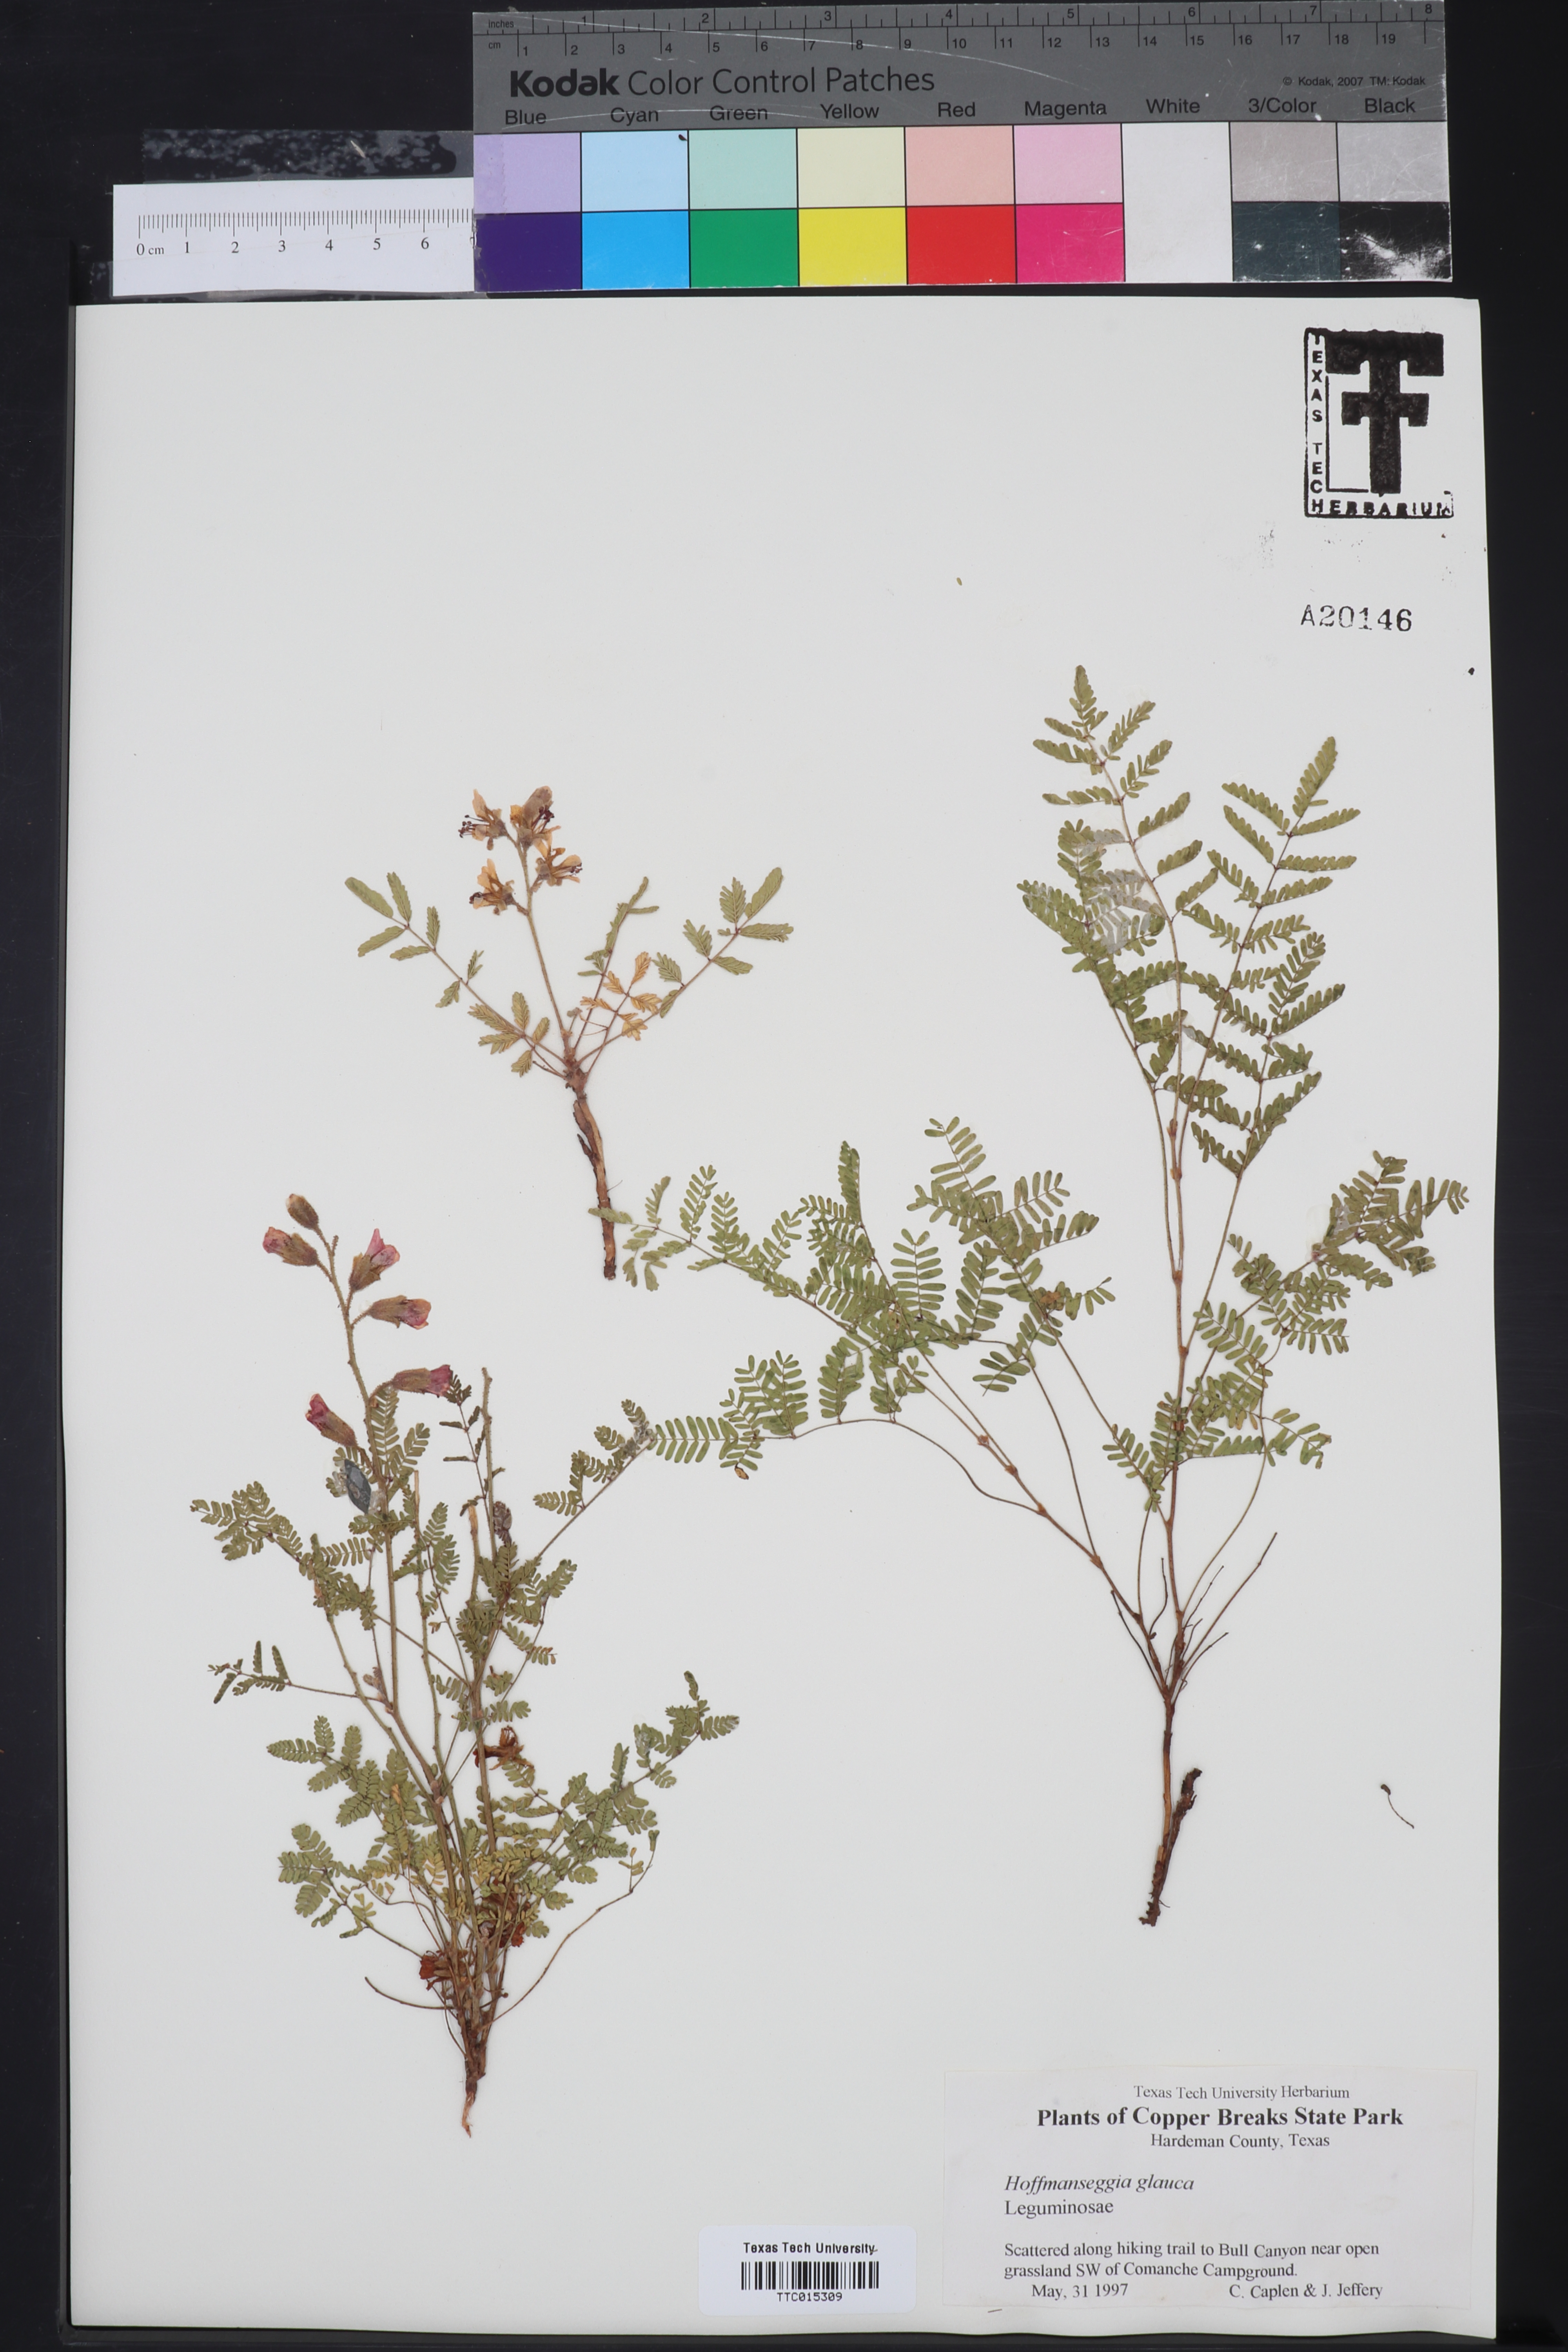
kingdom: Plantae
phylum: Tracheophyta
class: Magnoliopsida
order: Fabales
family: Fabaceae
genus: Hoffmannseggia
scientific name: Hoffmannseggia glauca
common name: Pignut
